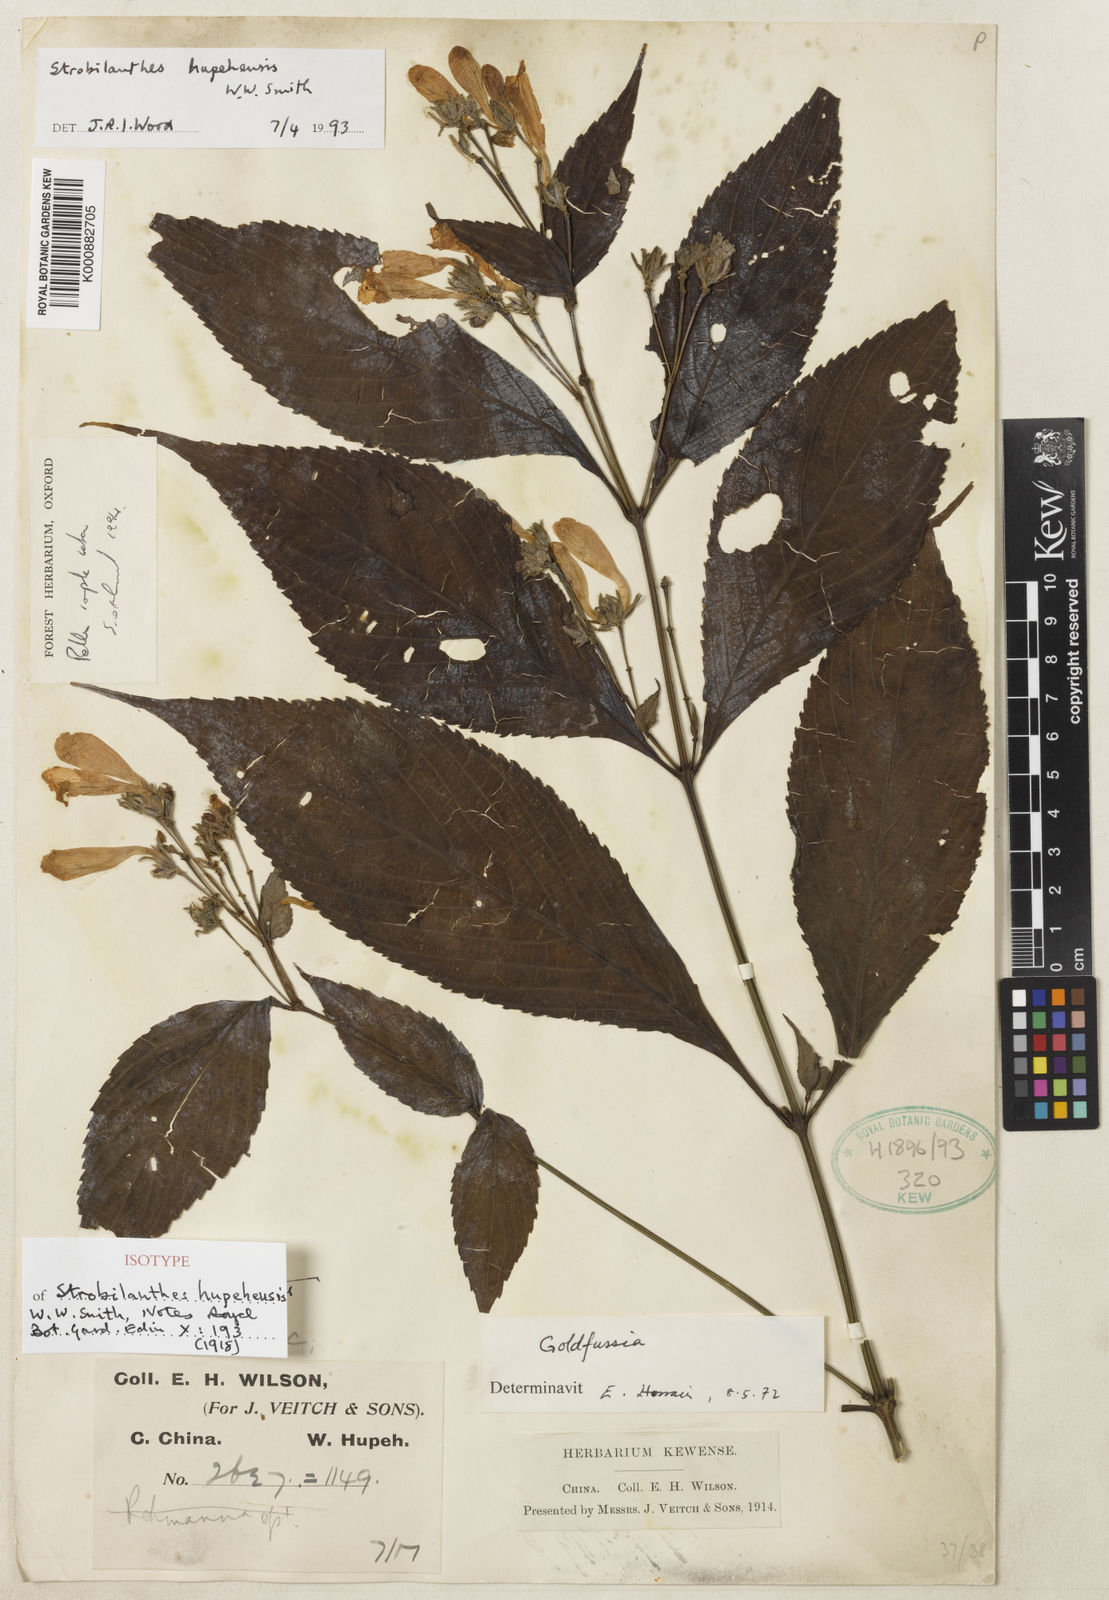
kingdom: Plantae
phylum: Tracheophyta
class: Magnoliopsida
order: Lamiales
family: Acanthaceae
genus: Strobilanthes
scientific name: Strobilanthes hupehensis
